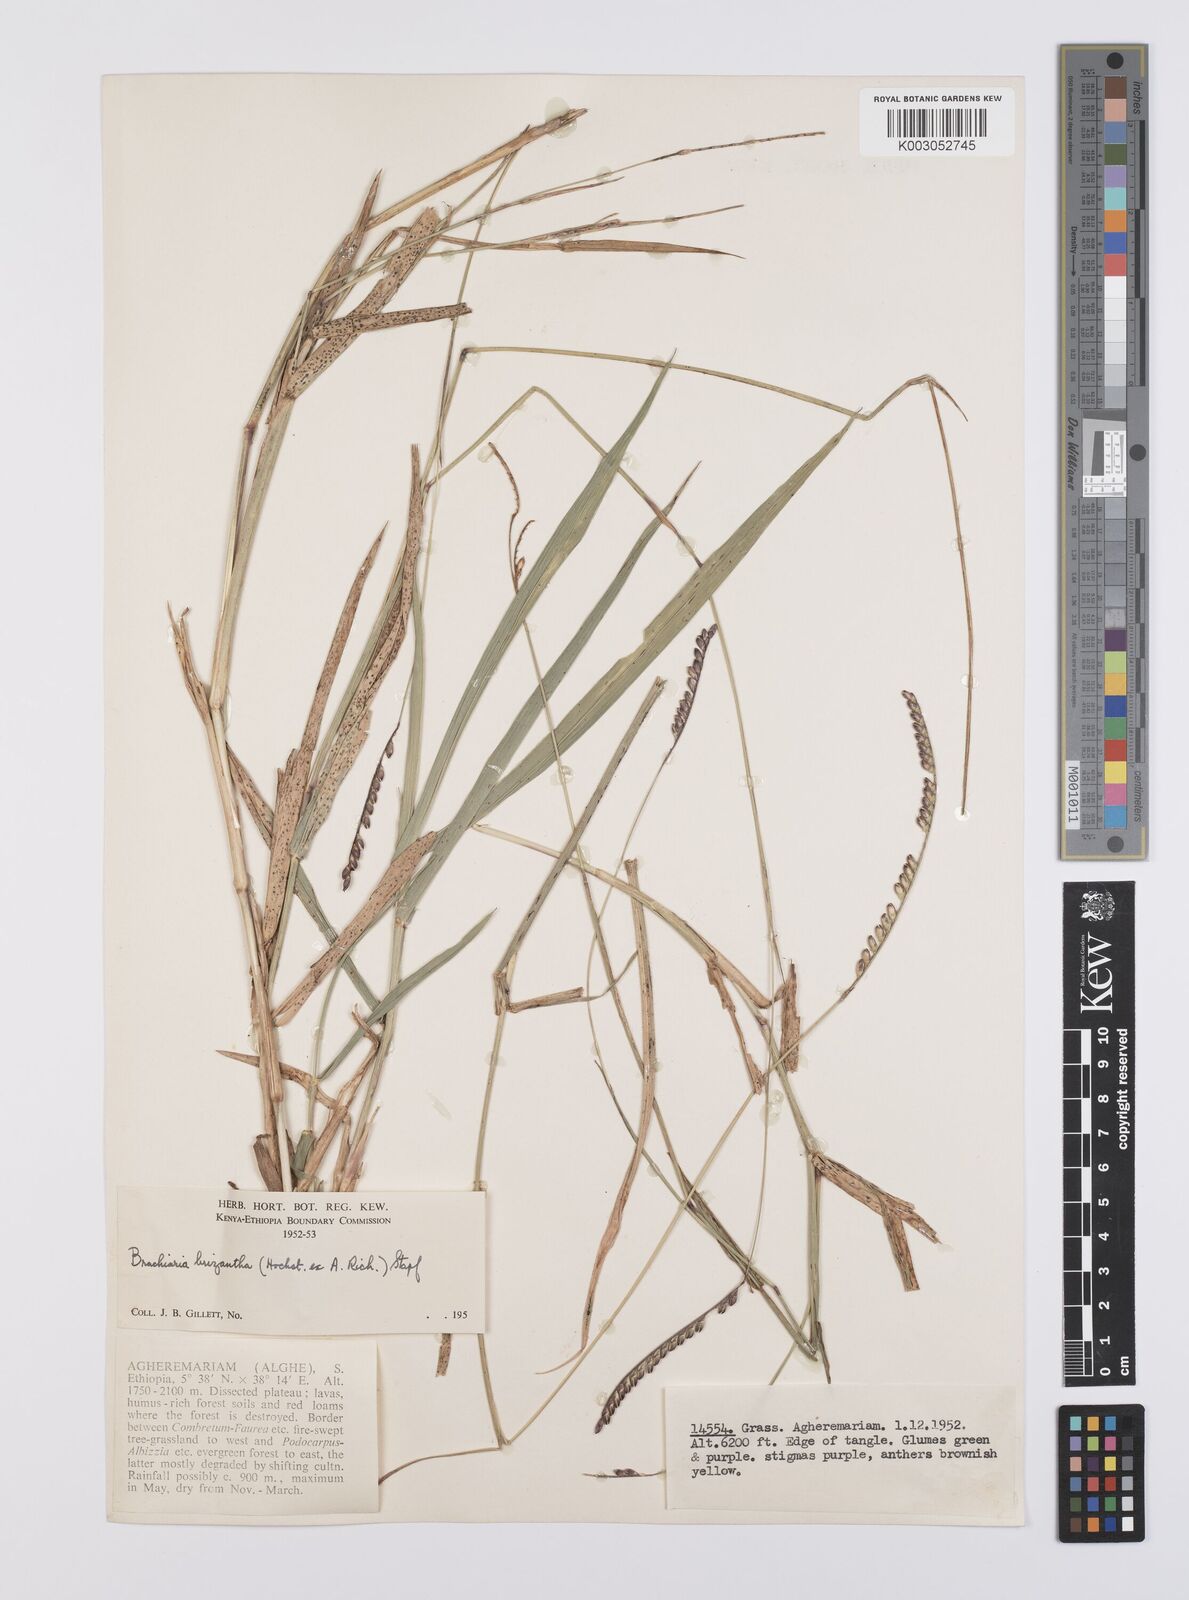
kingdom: Plantae
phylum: Tracheophyta
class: Liliopsida
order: Poales
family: Poaceae
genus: Urochloa
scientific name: Urochloa brizantha
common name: Palisade signalgrass
